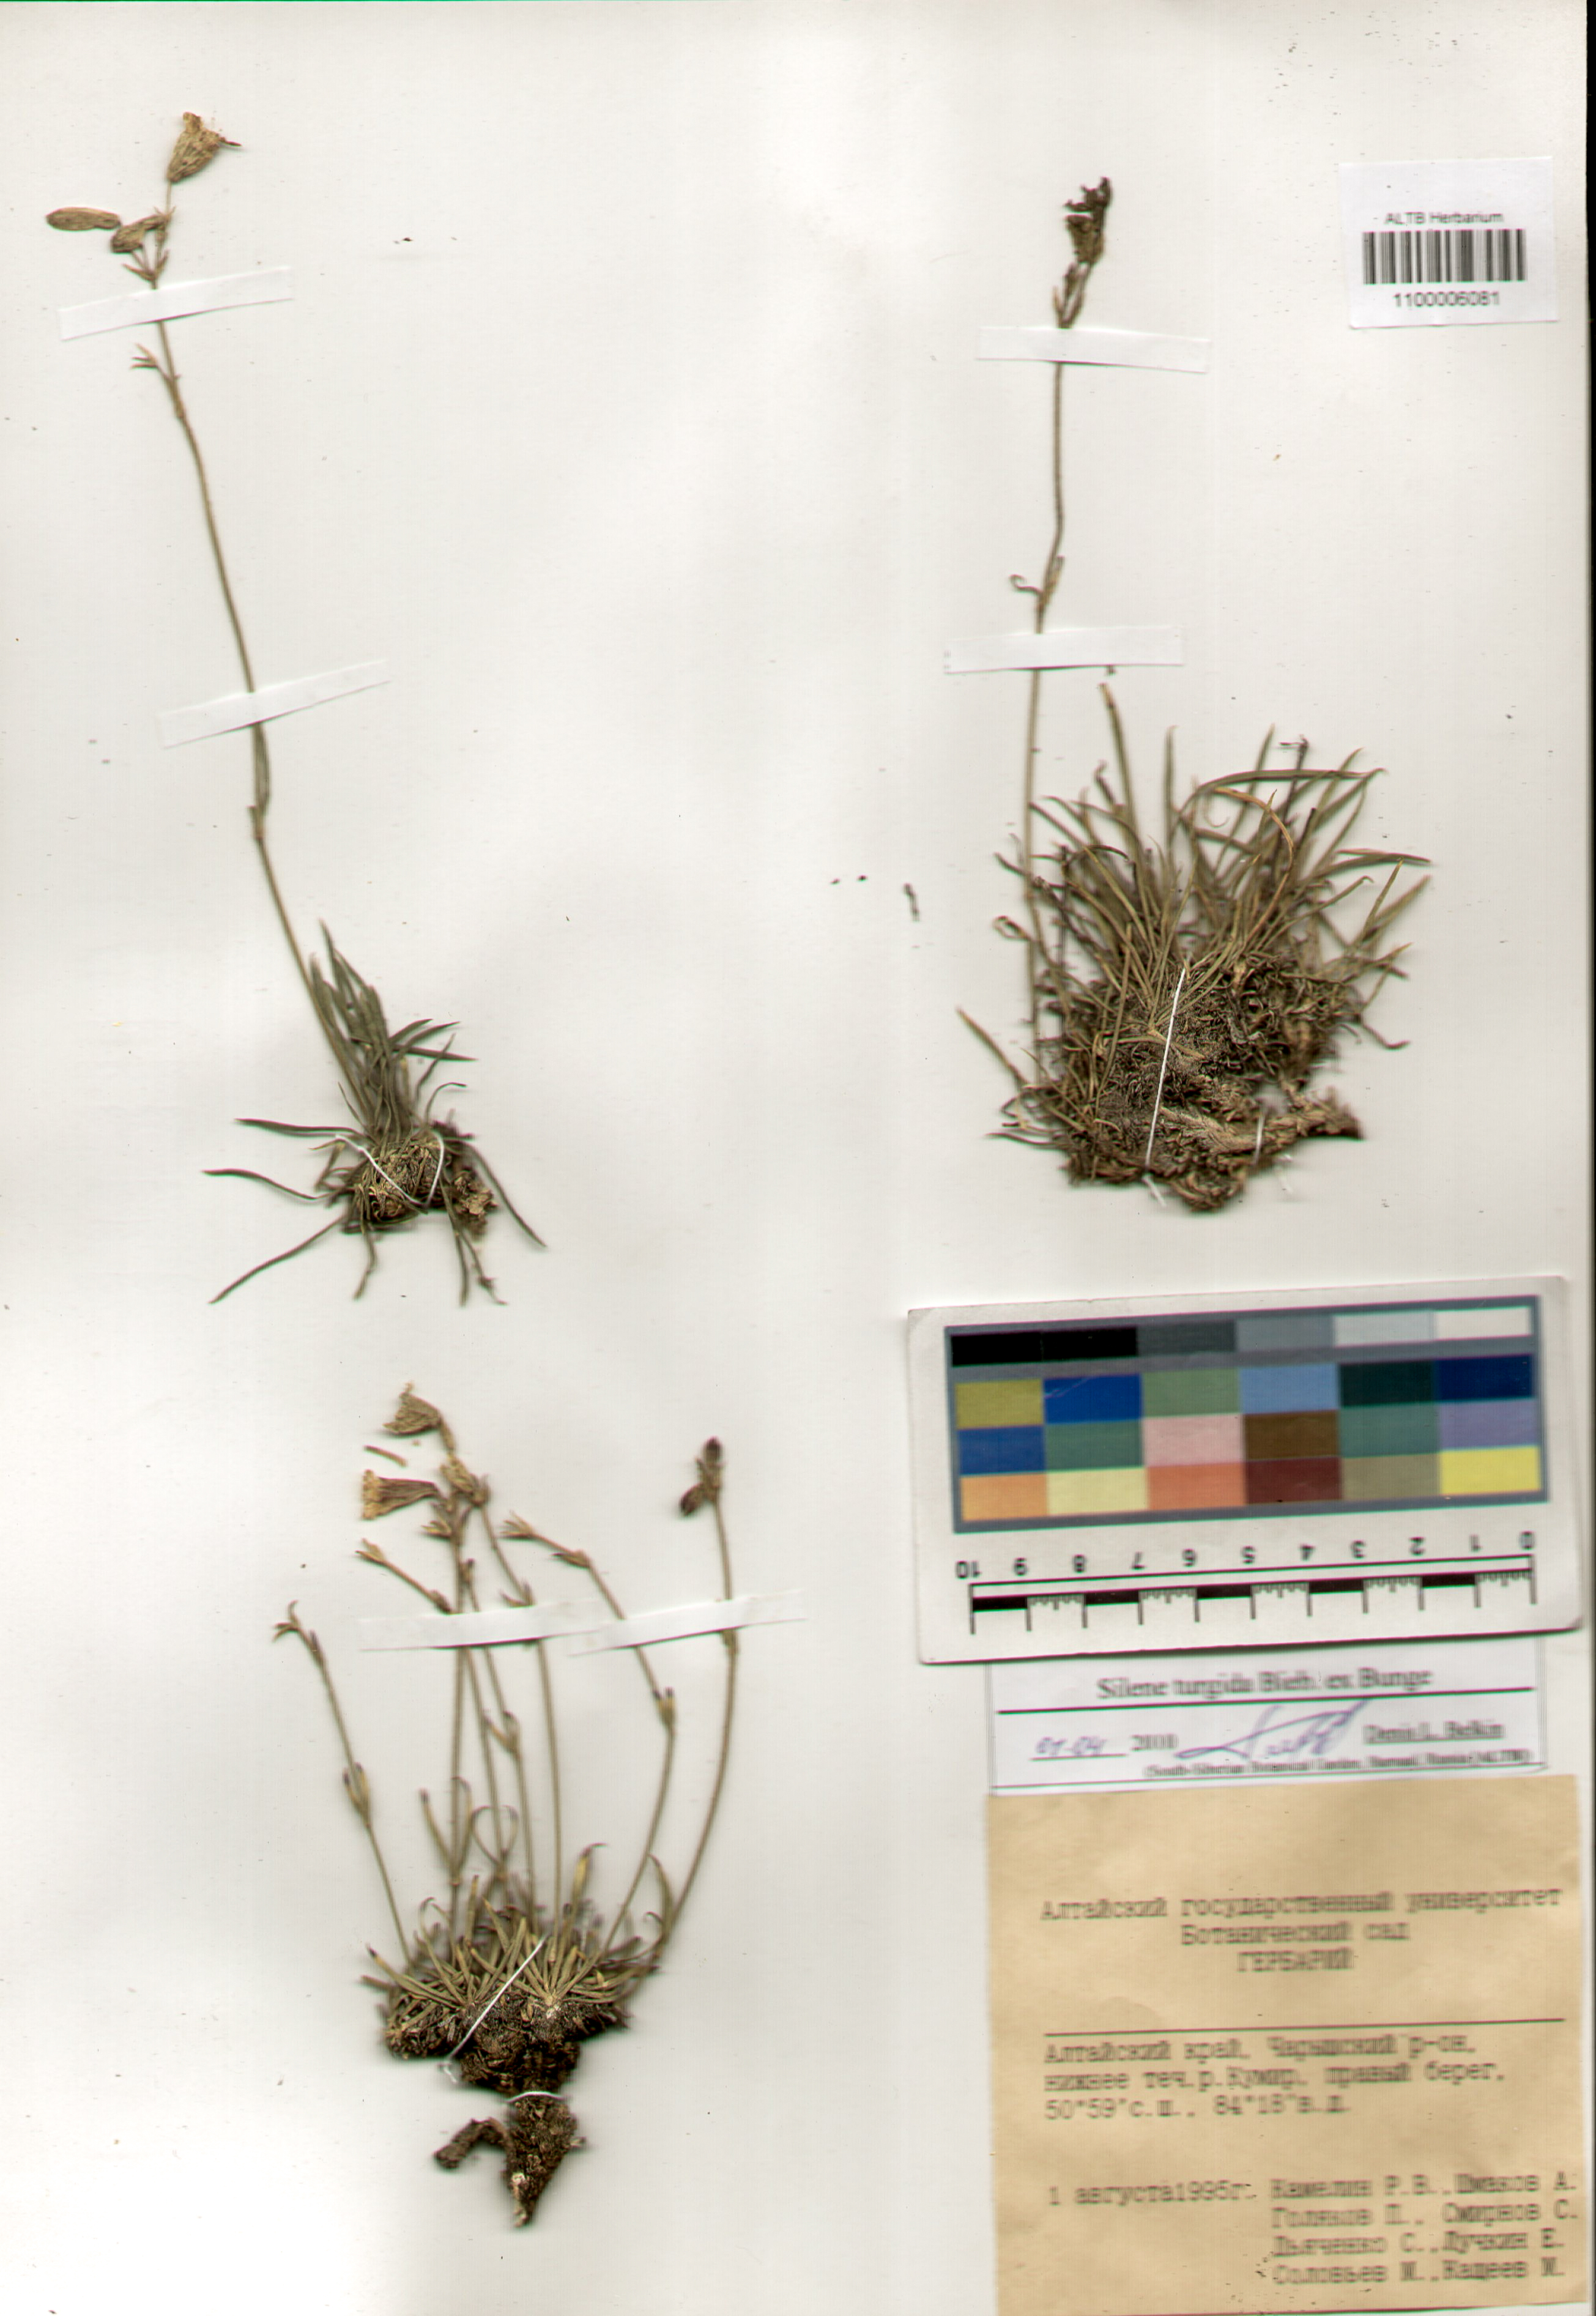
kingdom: Plantae
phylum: Tracheophyta
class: Magnoliopsida
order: Caryophyllales
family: Caryophyllaceae
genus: Silene
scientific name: Silene turgida
